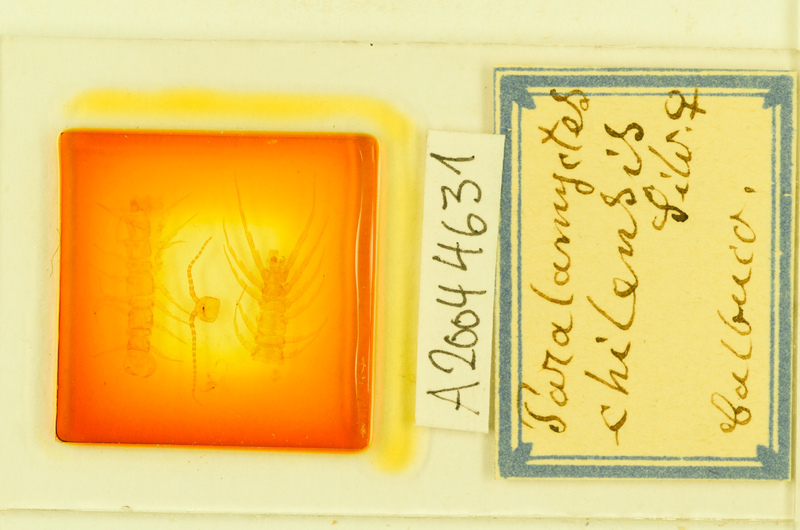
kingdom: Animalia
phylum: Arthropoda
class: Chilopoda
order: Lithobiomorpha
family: Henicopidae
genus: Paralamyctes
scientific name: Paralamyctes chilensis
